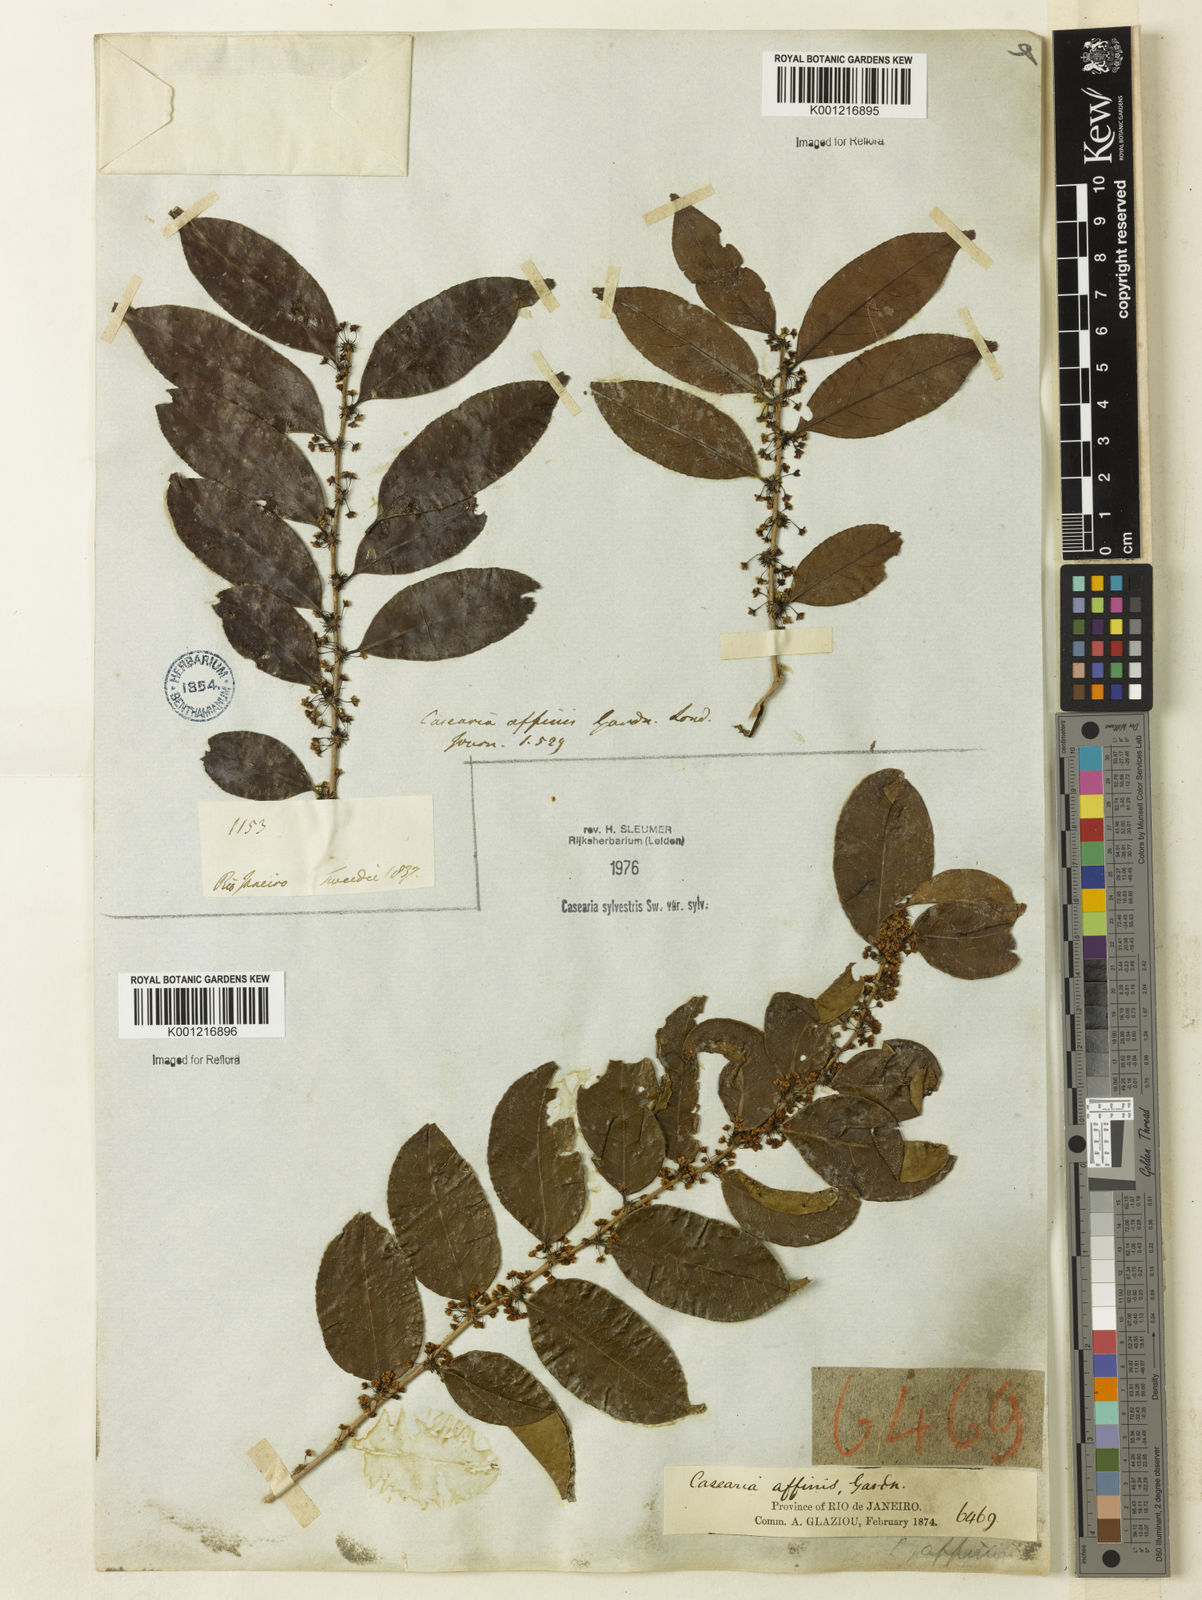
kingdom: Plantae
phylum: Tracheophyta
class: Magnoliopsida
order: Malpighiales
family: Salicaceae
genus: Casearia
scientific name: Casearia sylvestris
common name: Wild sage
